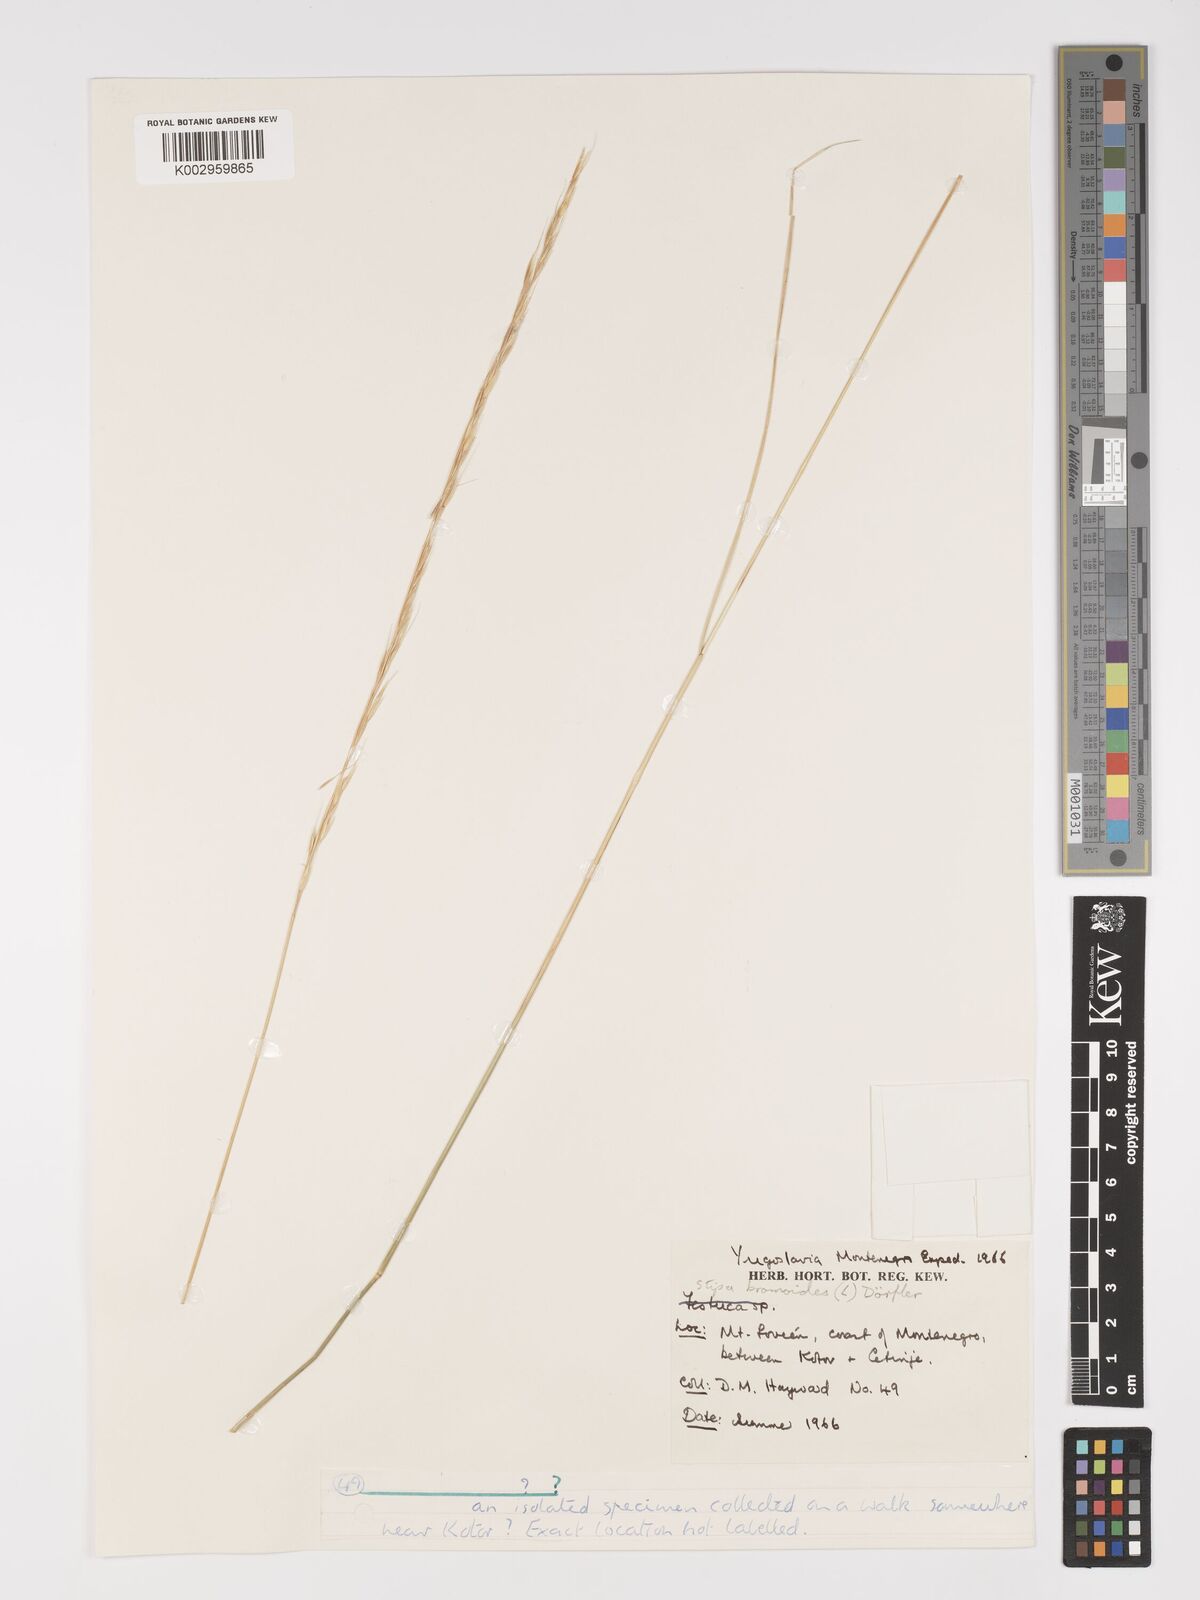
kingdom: Plantae
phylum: Tracheophyta
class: Liliopsida
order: Poales
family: Poaceae
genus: Achnatherum
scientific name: Achnatherum calamagrostis
